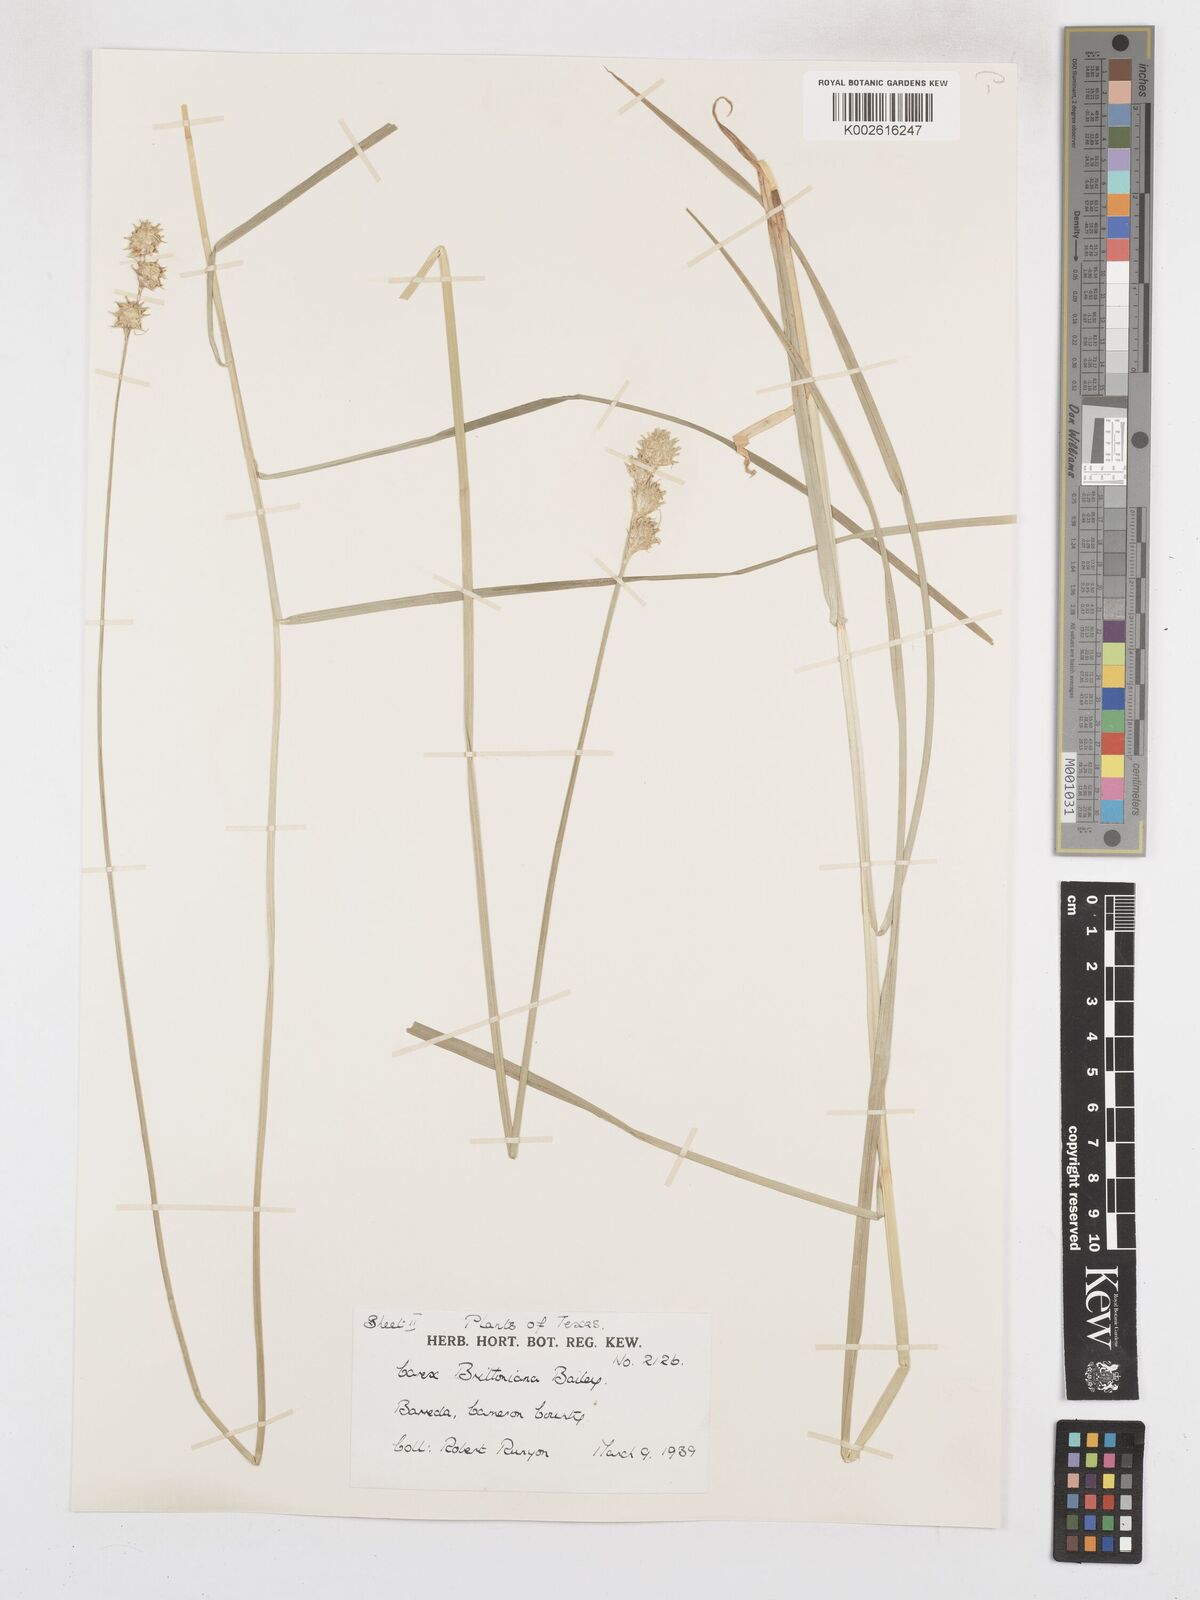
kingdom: Plantae
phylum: Tracheophyta
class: Liliopsida
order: Poales
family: Cyperaceae
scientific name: Cyperaceae
